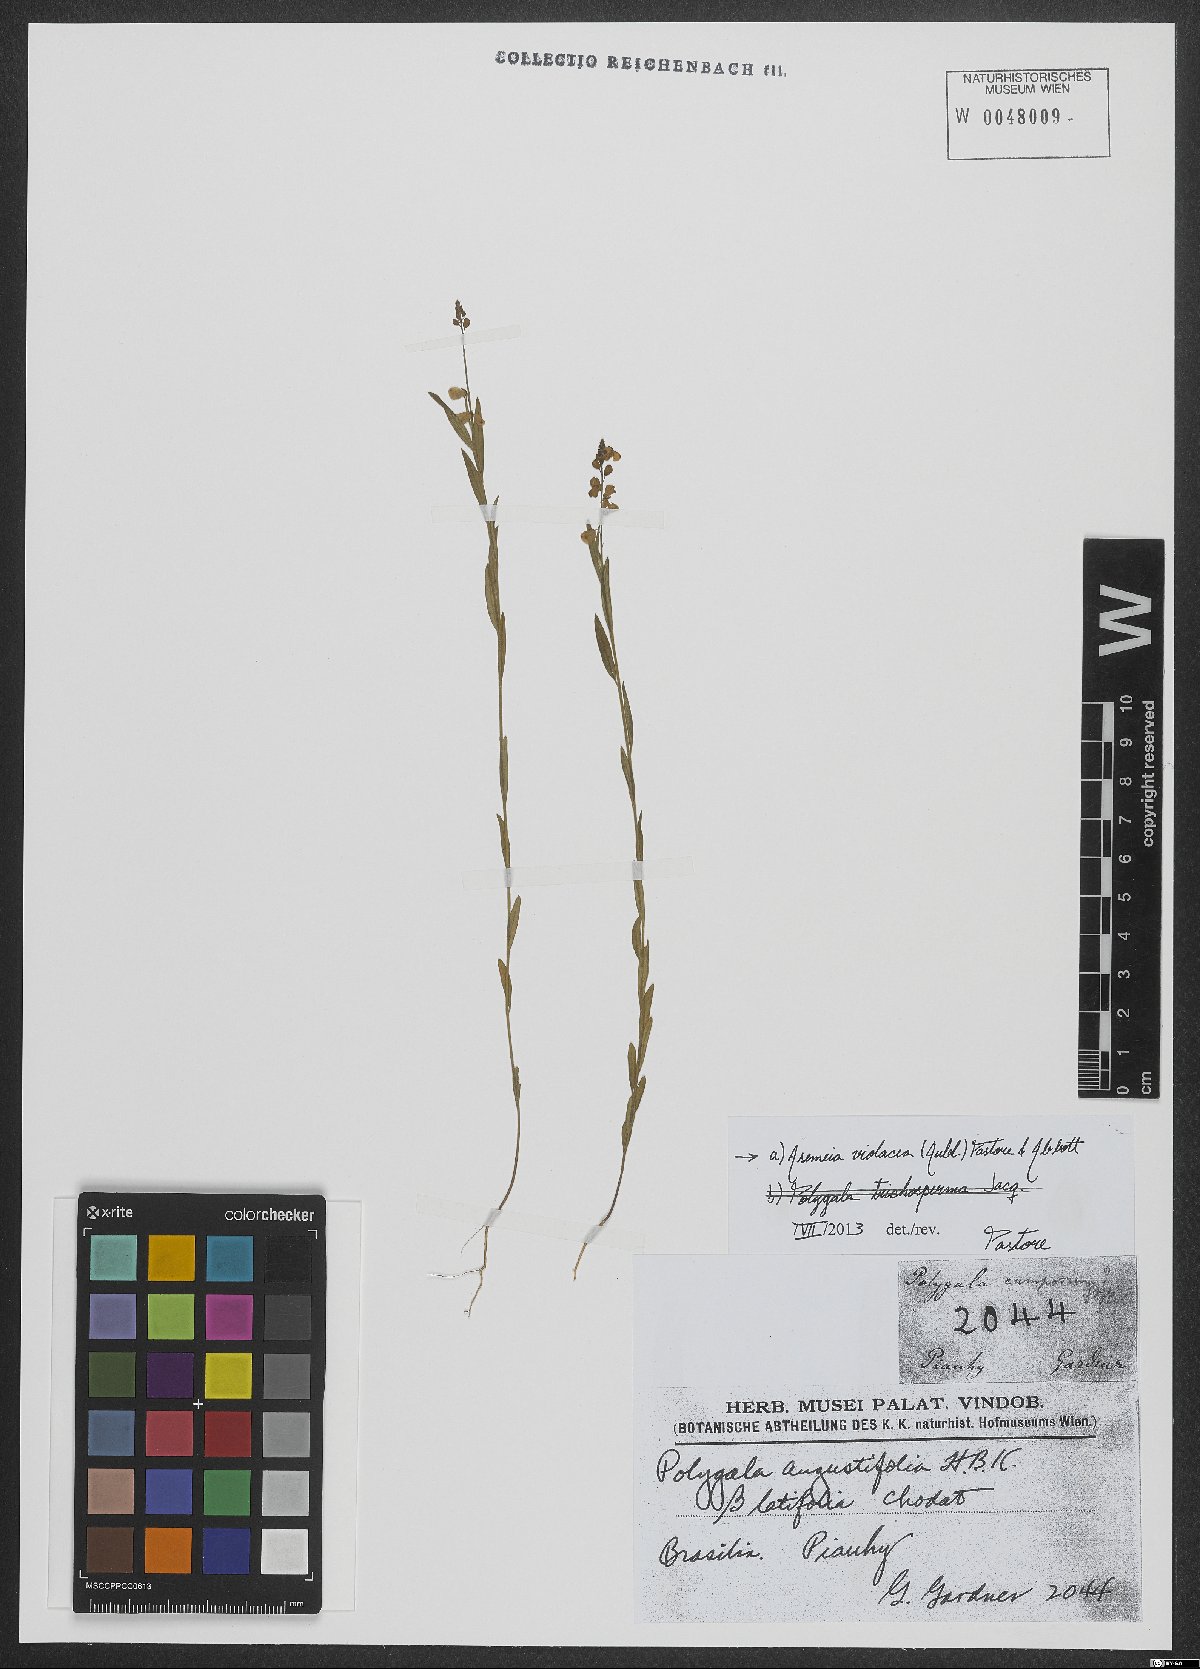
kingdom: Plantae
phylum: Tracheophyta
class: Magnoliopsida
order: Fabales
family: Polygalaceae
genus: Asemeia
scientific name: Asemeia violacea
